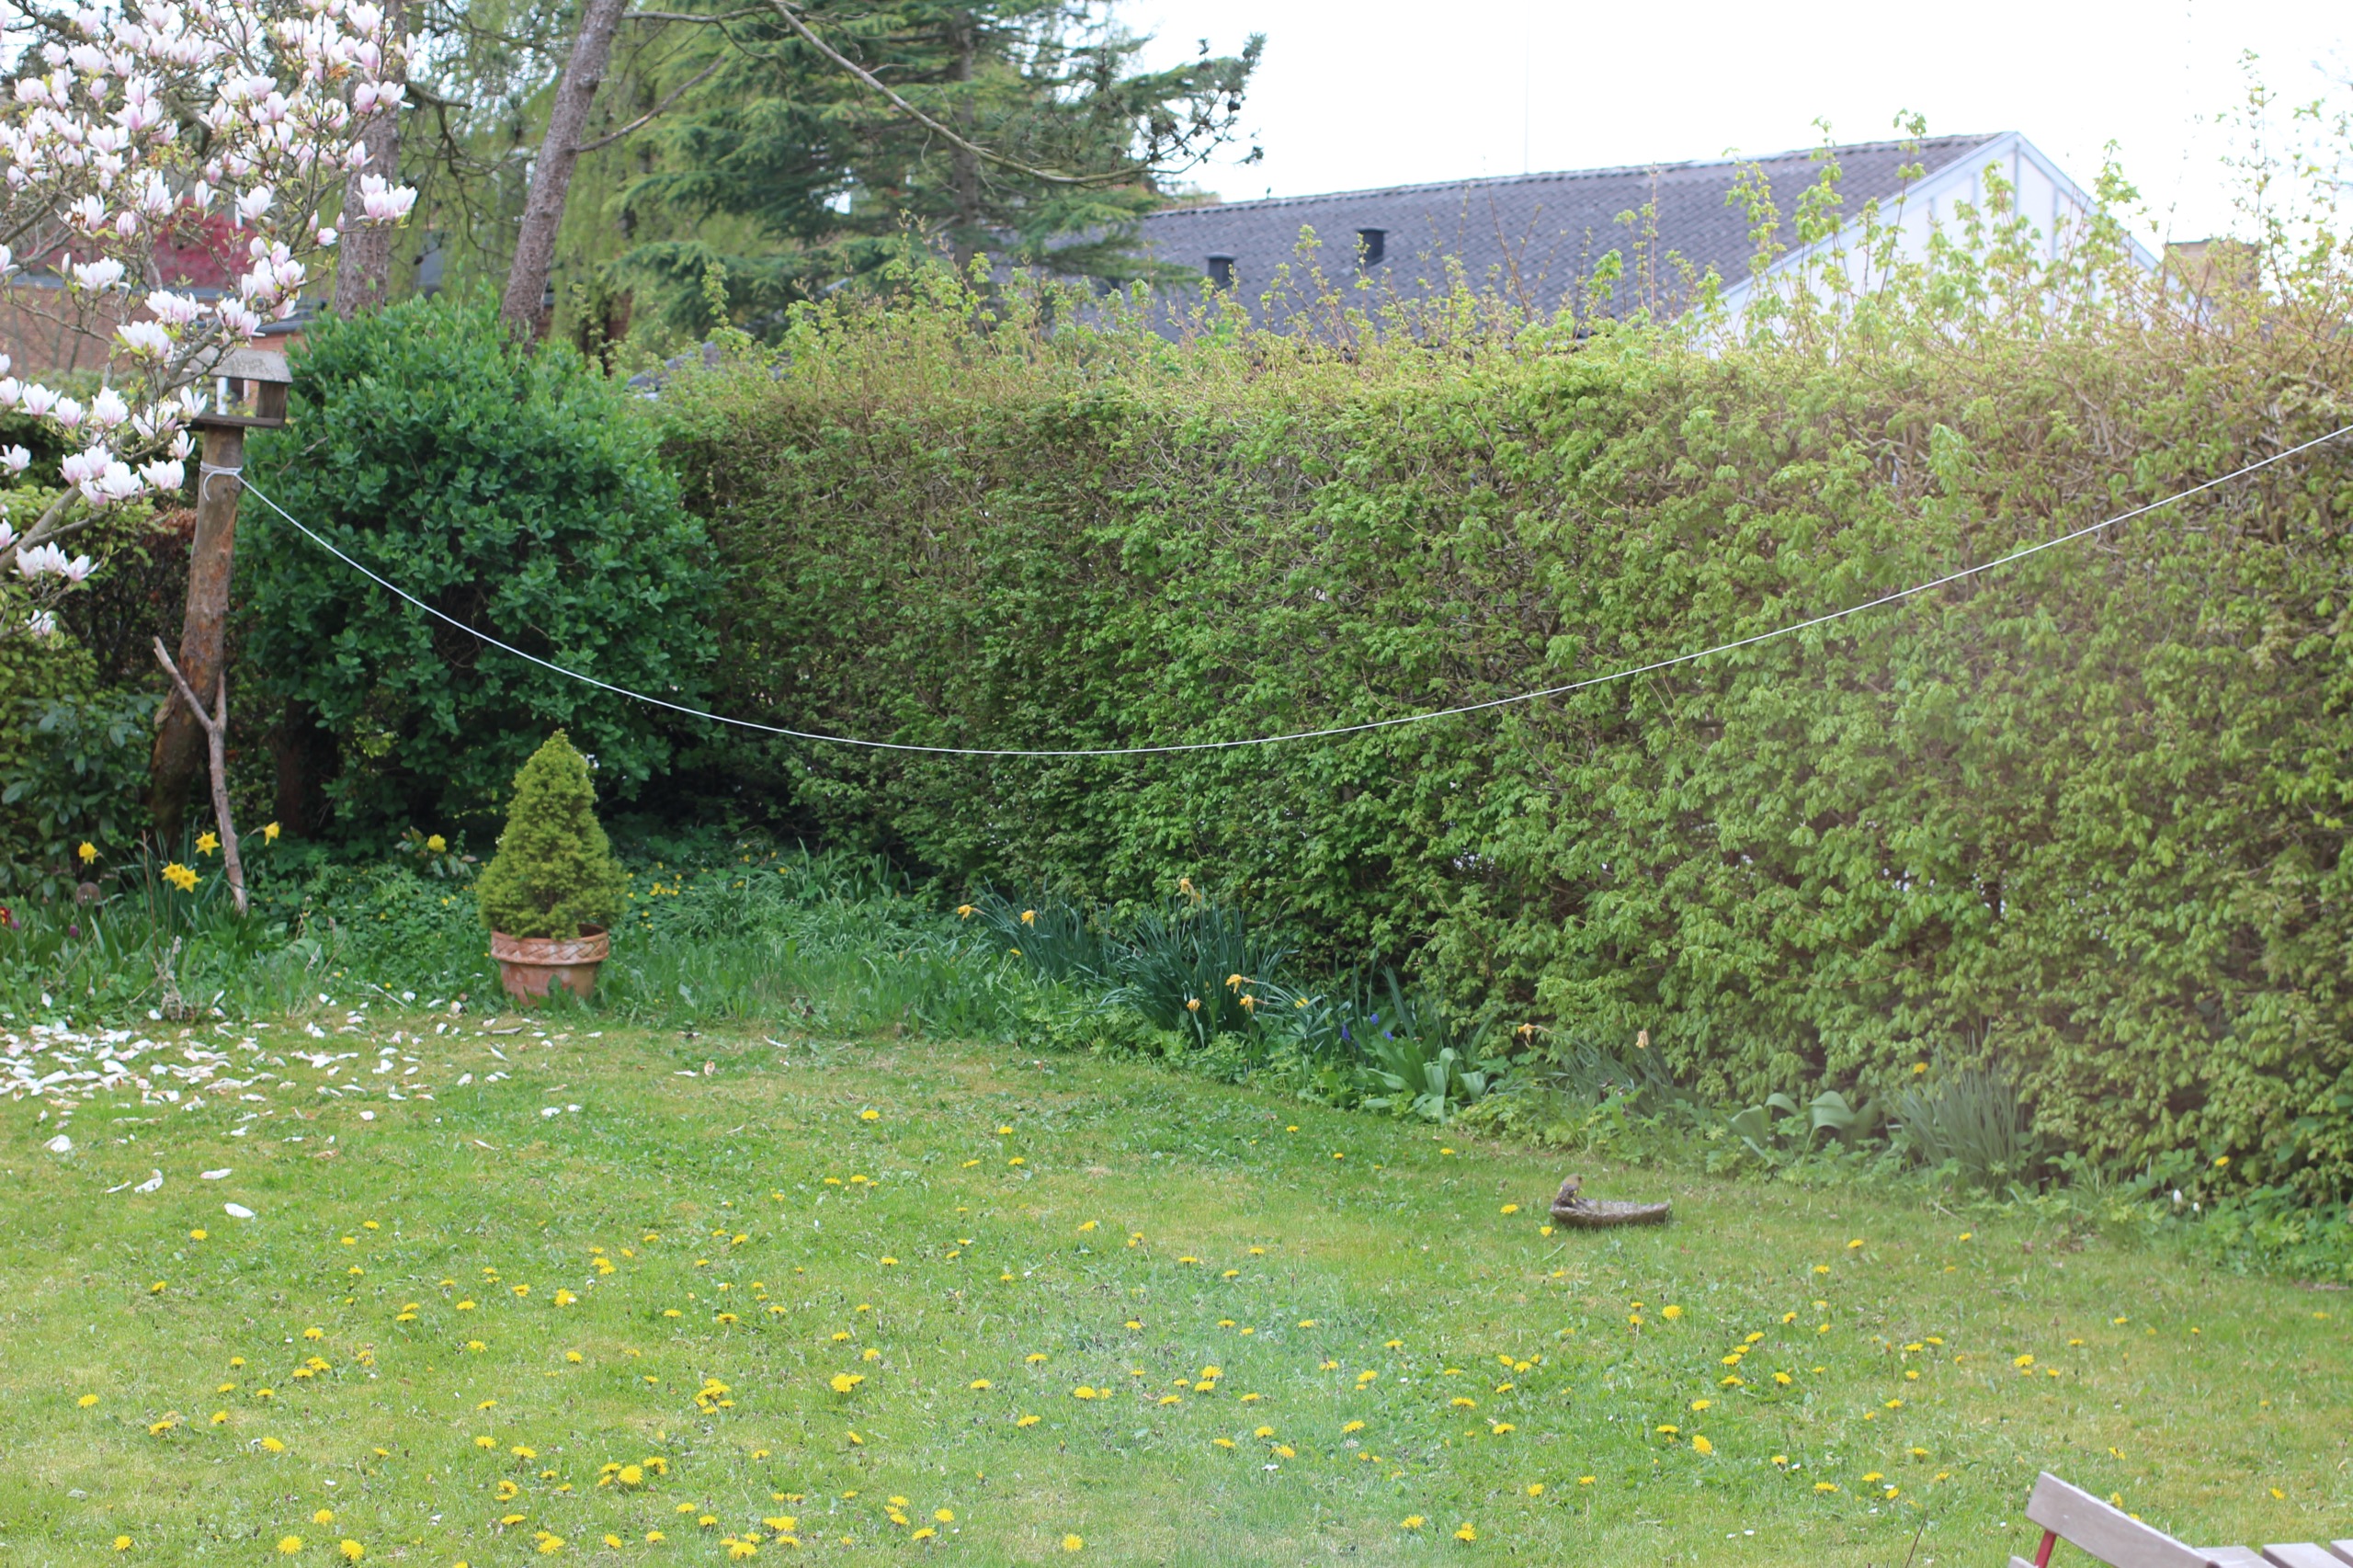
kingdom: Plantae
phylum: Tracheophyta
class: Liliopsida
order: Poales
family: Poaceae
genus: Chloris
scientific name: Chloris chloris
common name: Grønirisk
